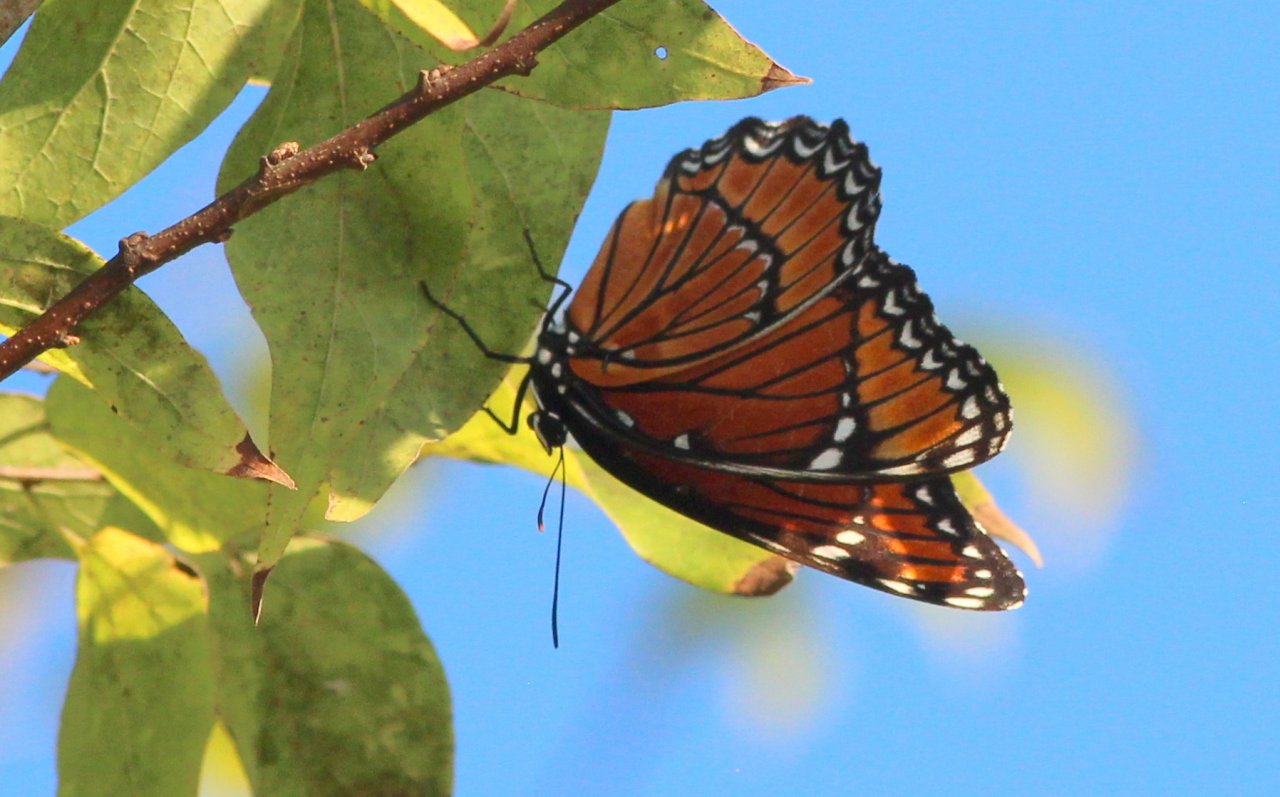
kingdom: Animalia
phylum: Arthropoda
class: Insecta
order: Lepidoptera
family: Nymphalidae
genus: Limenitis
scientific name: Limenitis archippus
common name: Viceroy
